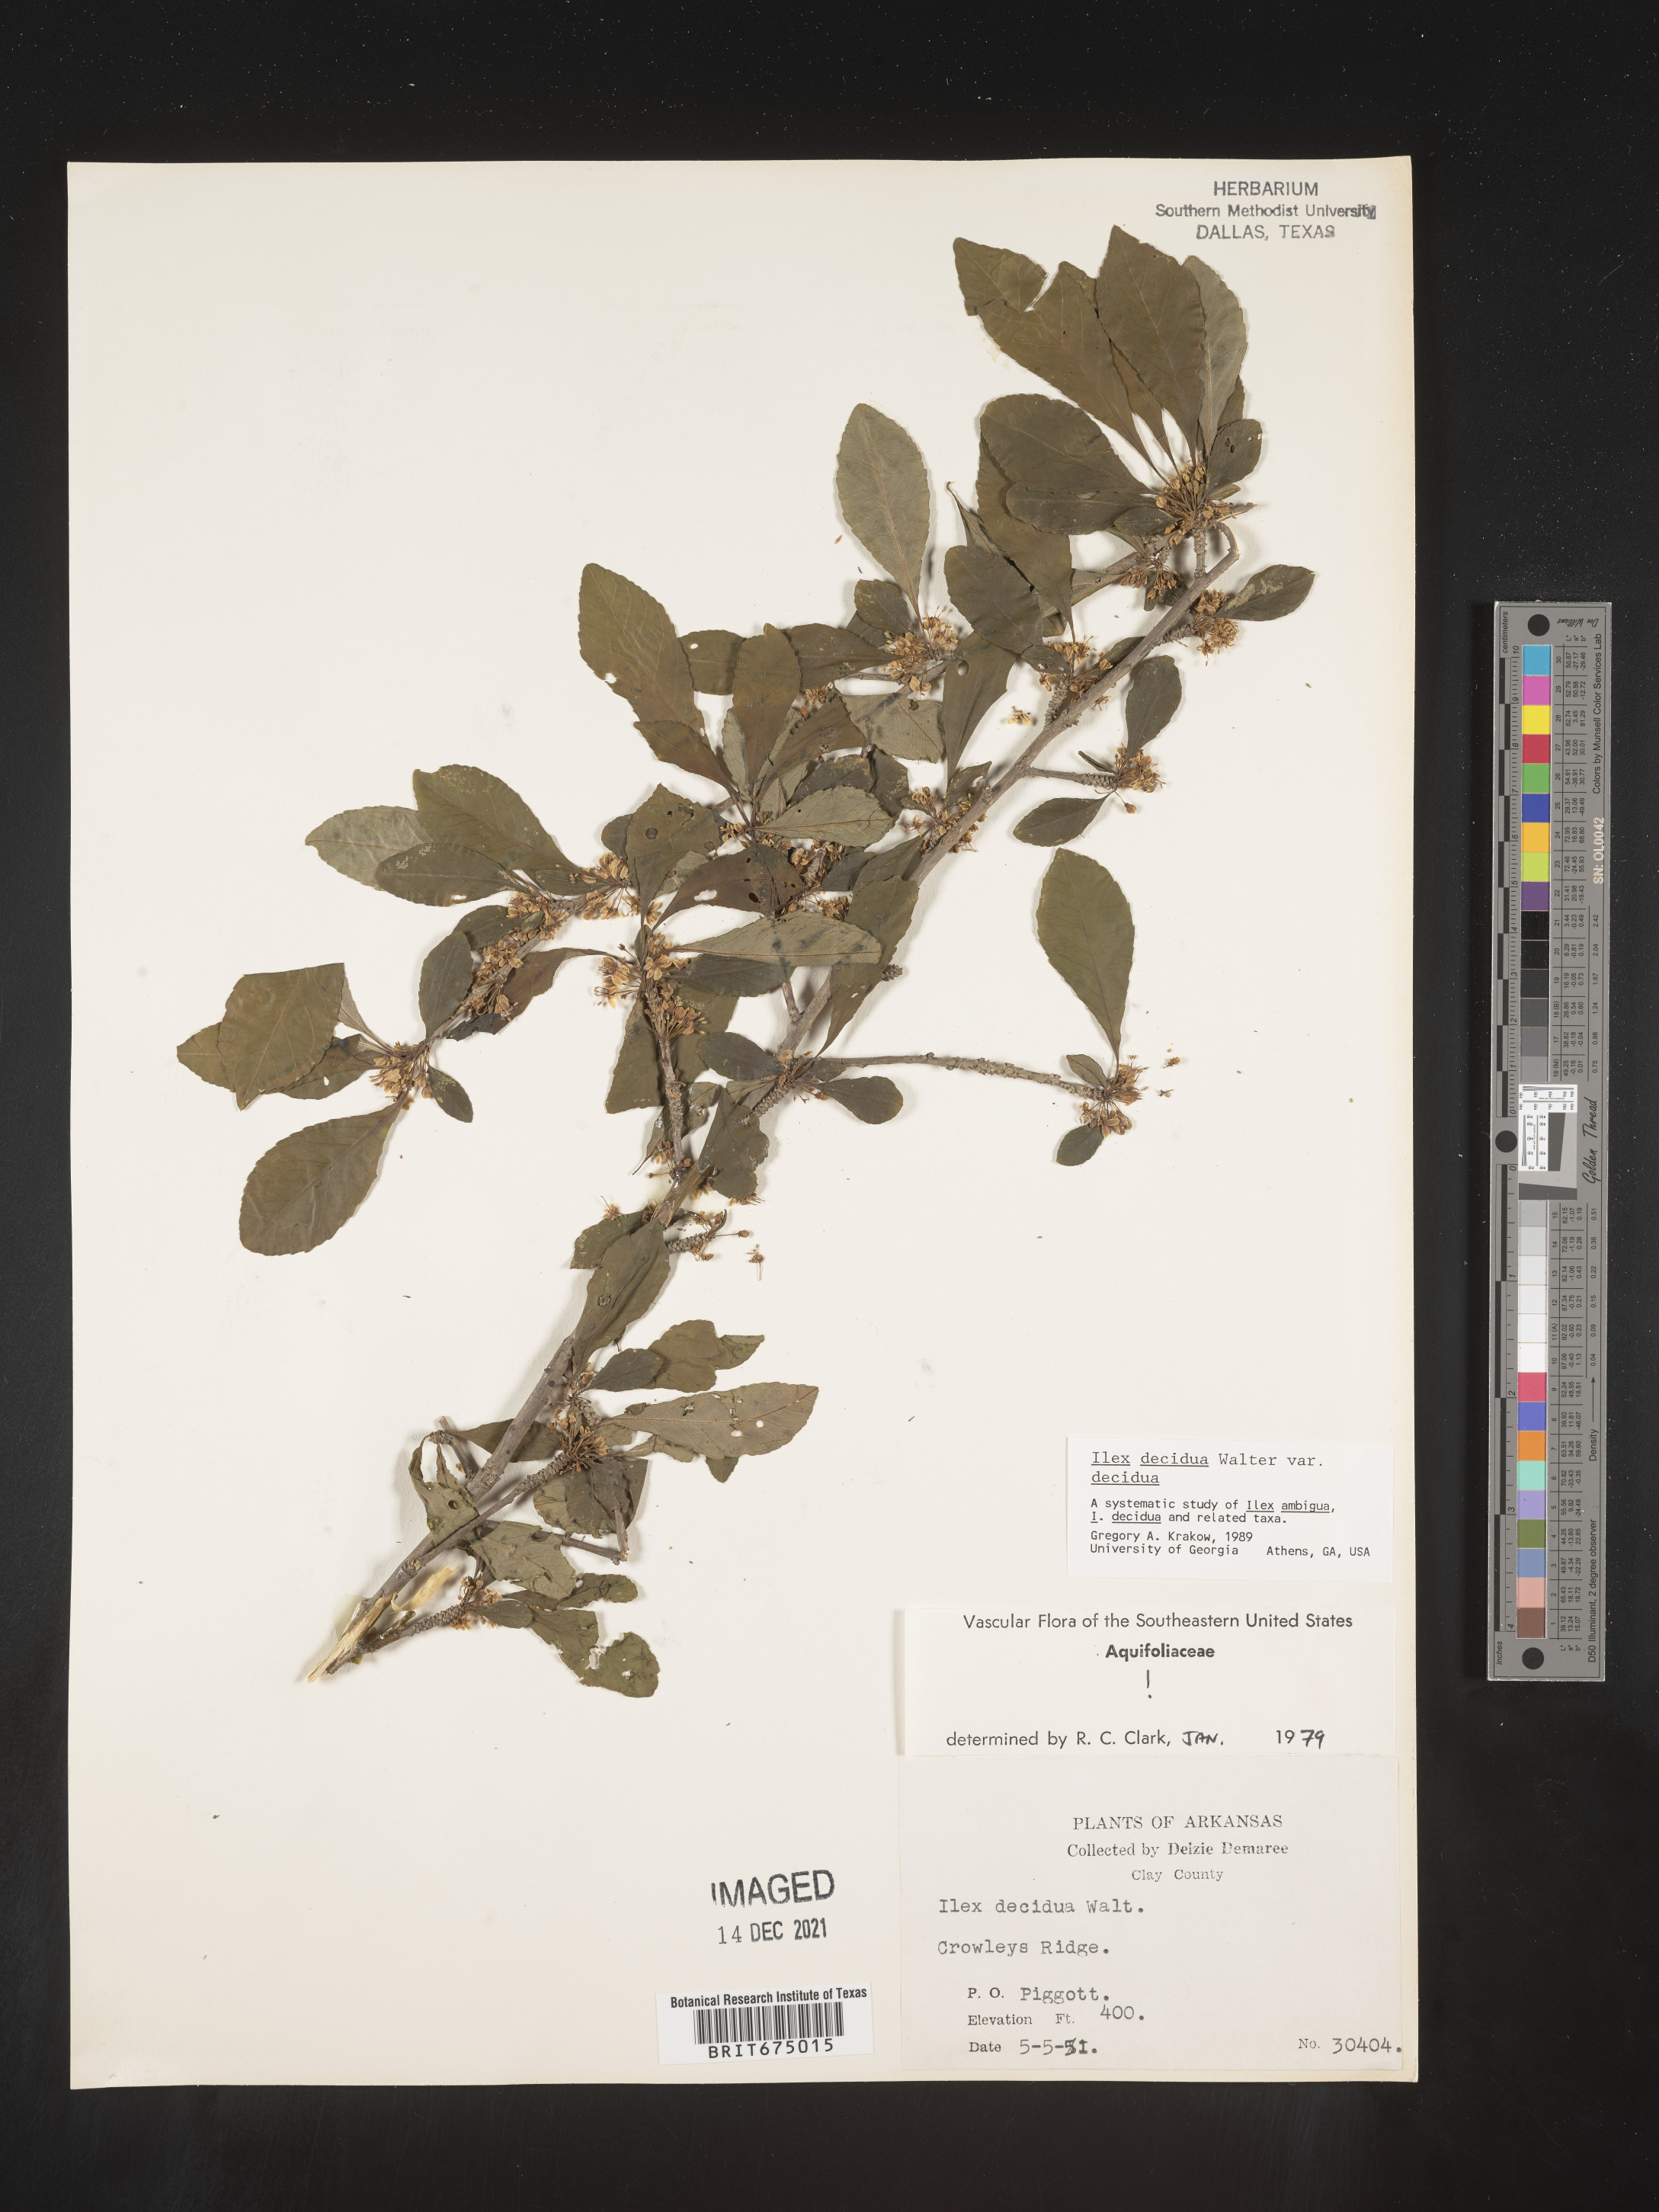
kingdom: Plantae
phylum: Tracheophyta
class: Magnoliopsida
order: Aquifoliales
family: Aquifoliaceae
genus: Ilex
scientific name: Ilex decidua
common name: Possum-haw
